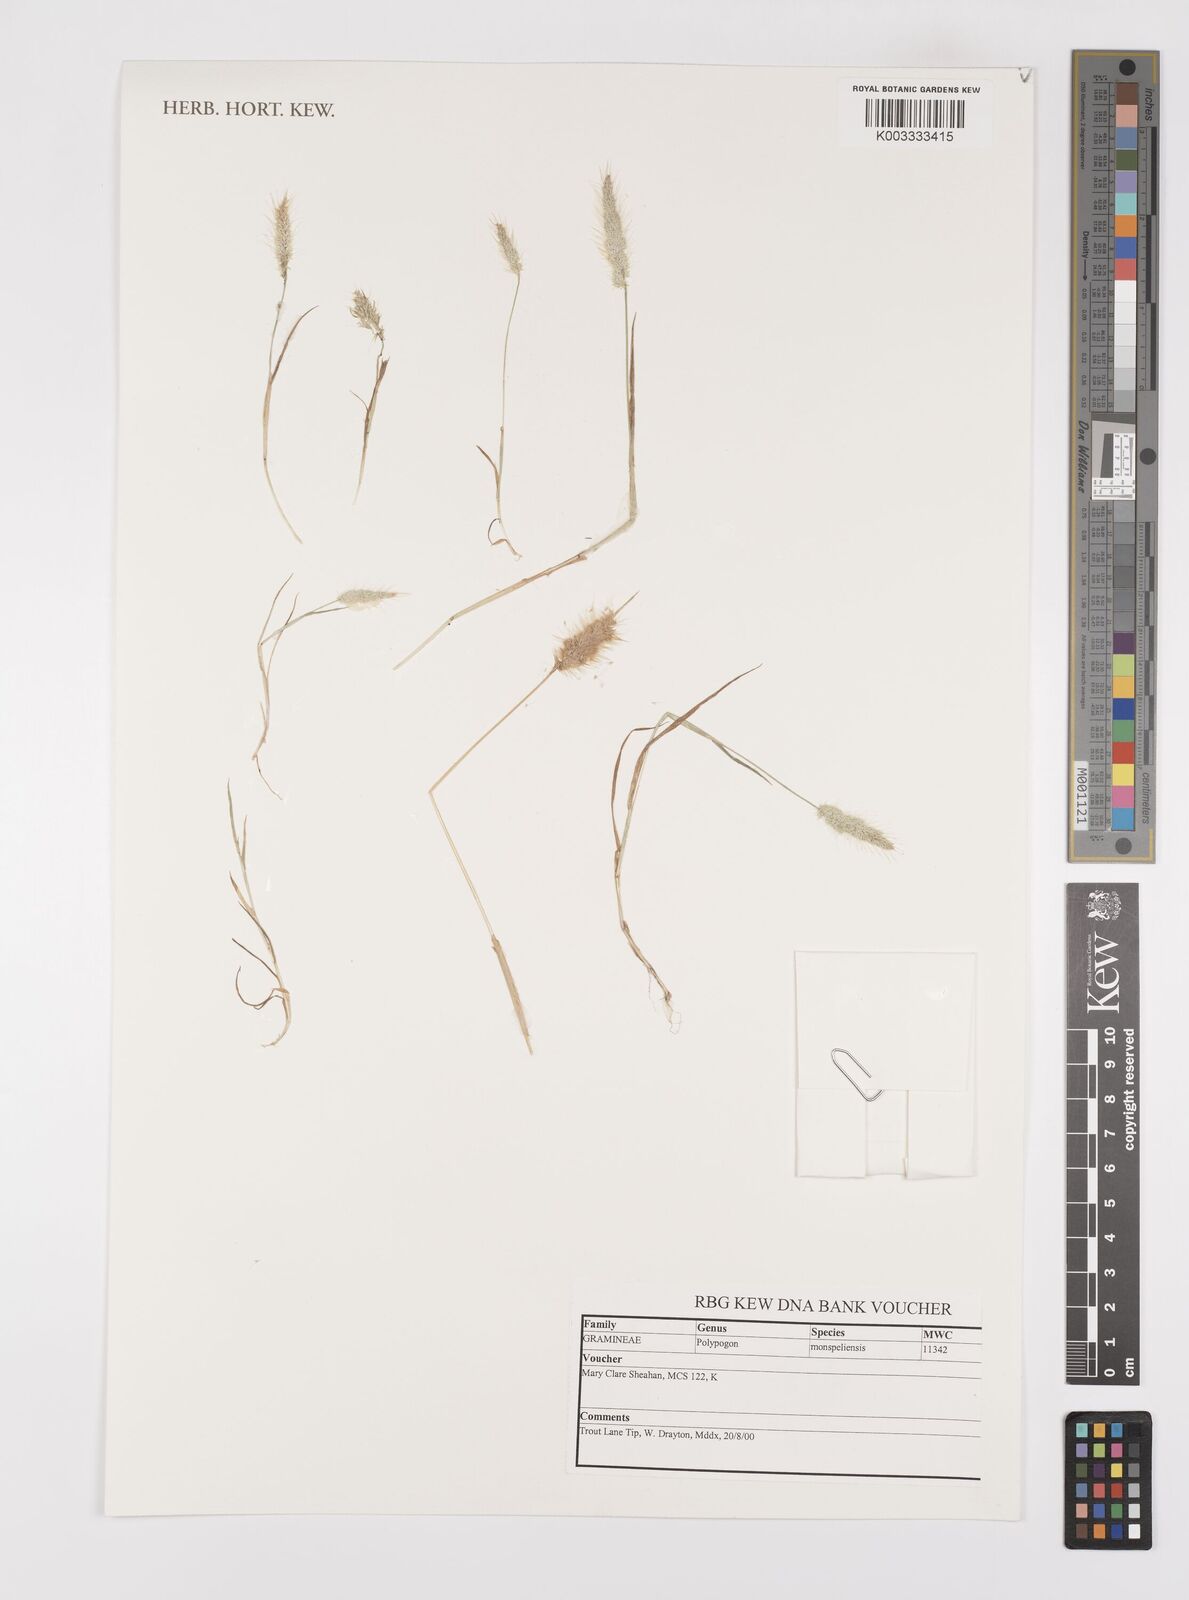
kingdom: Plantae
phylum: Tracheophyta
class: Liliopsida
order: Poales
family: Poaceae
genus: Polypogon
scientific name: Polypogon monspeliensis
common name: Annual rabbitsfoot grass
